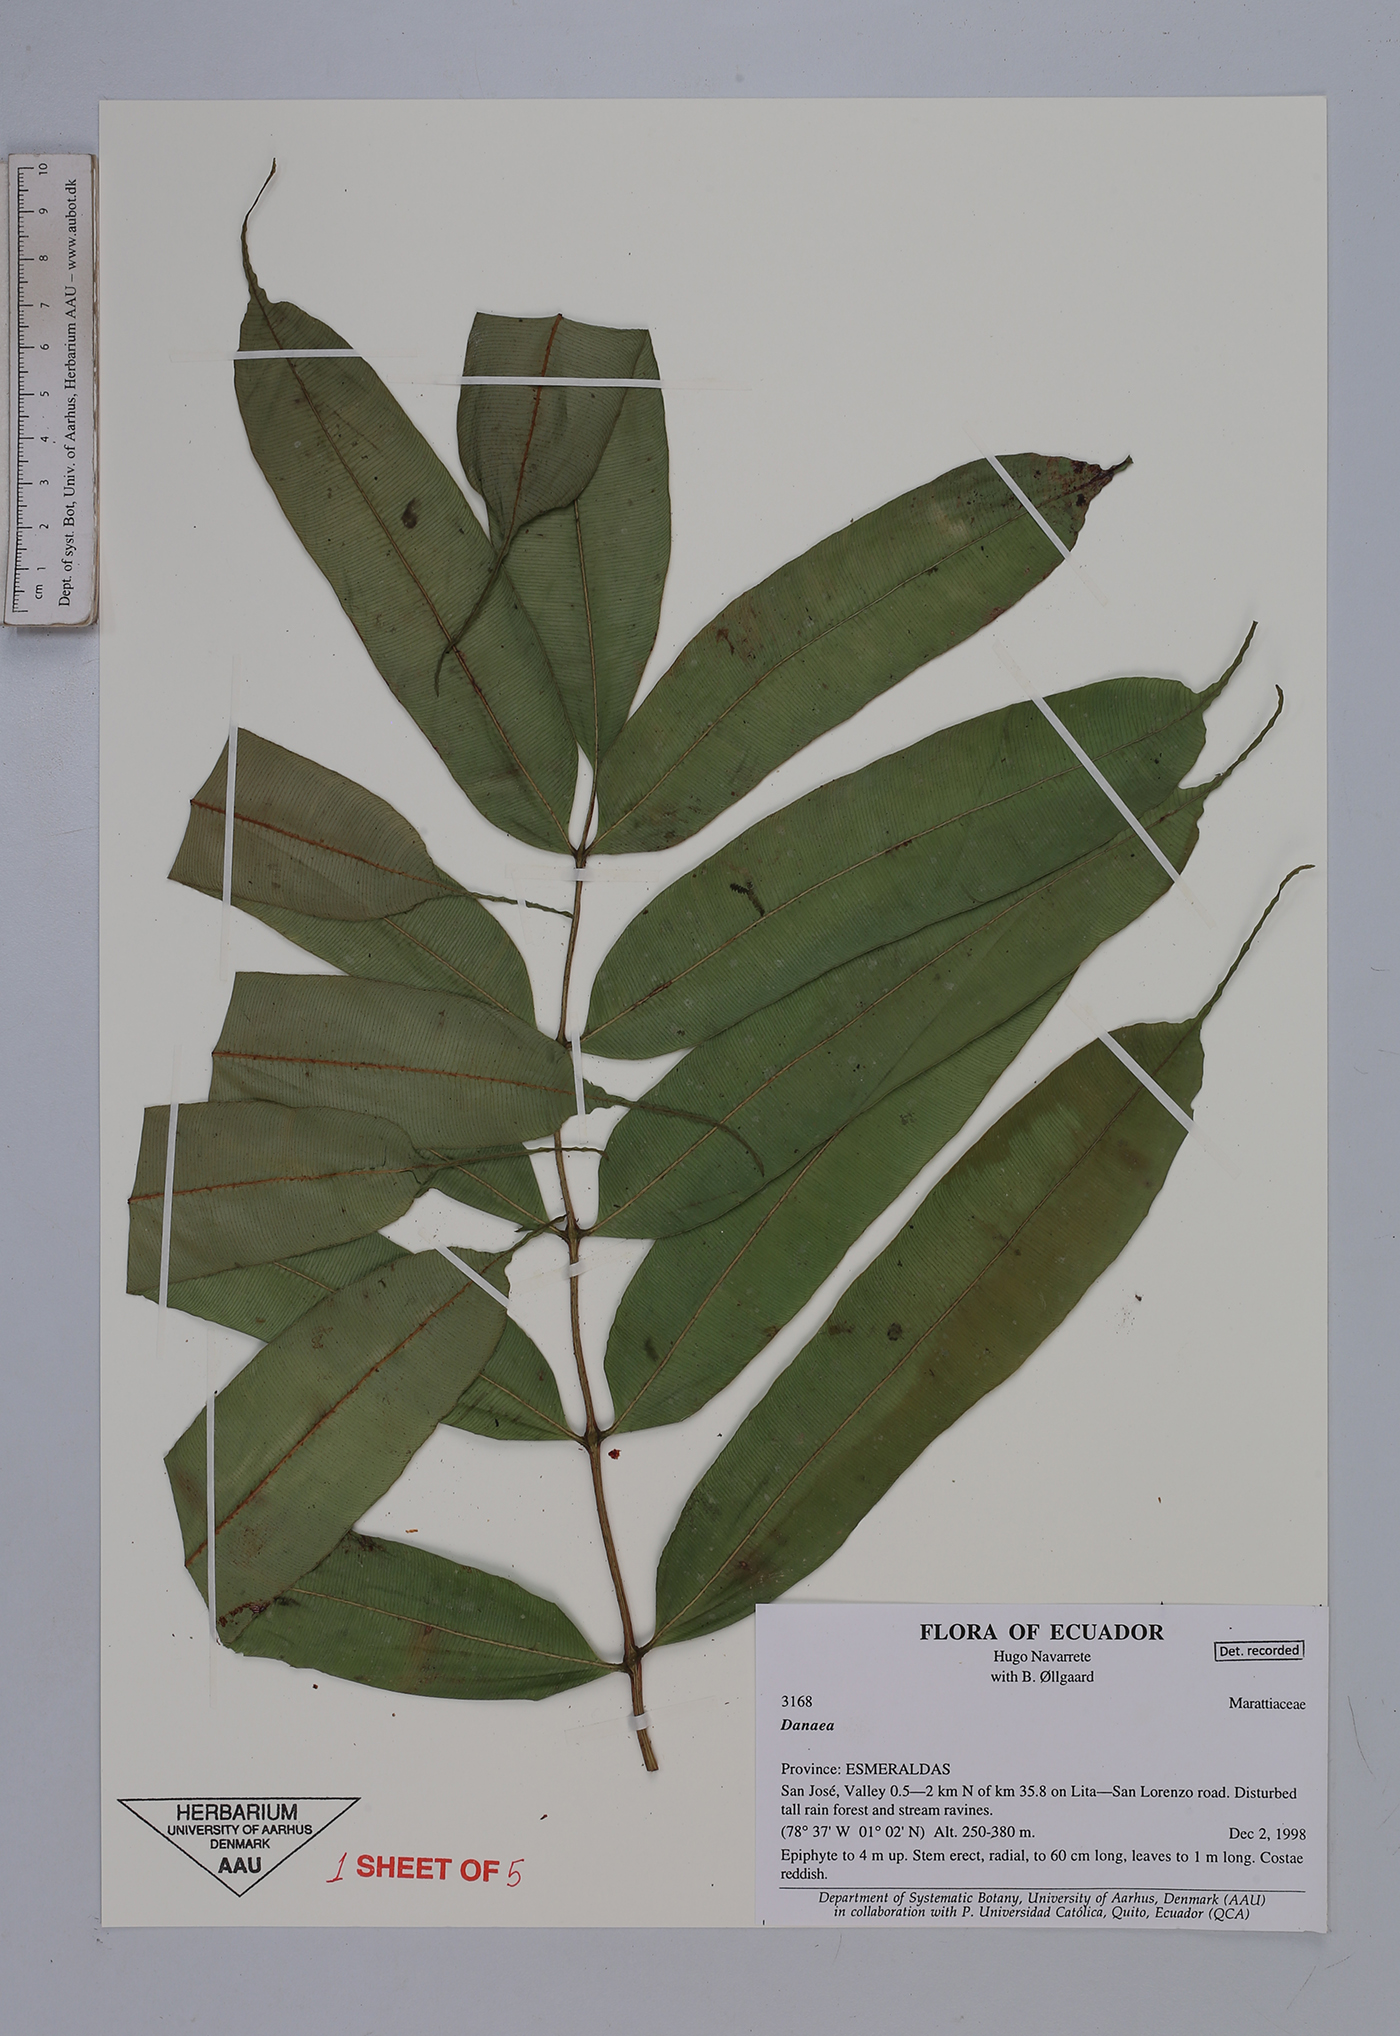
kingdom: Plantae
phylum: Tracheophyta
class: Polypodiopsida
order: Marattiales
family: Marattiaceae
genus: Danaea
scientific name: Danaea
